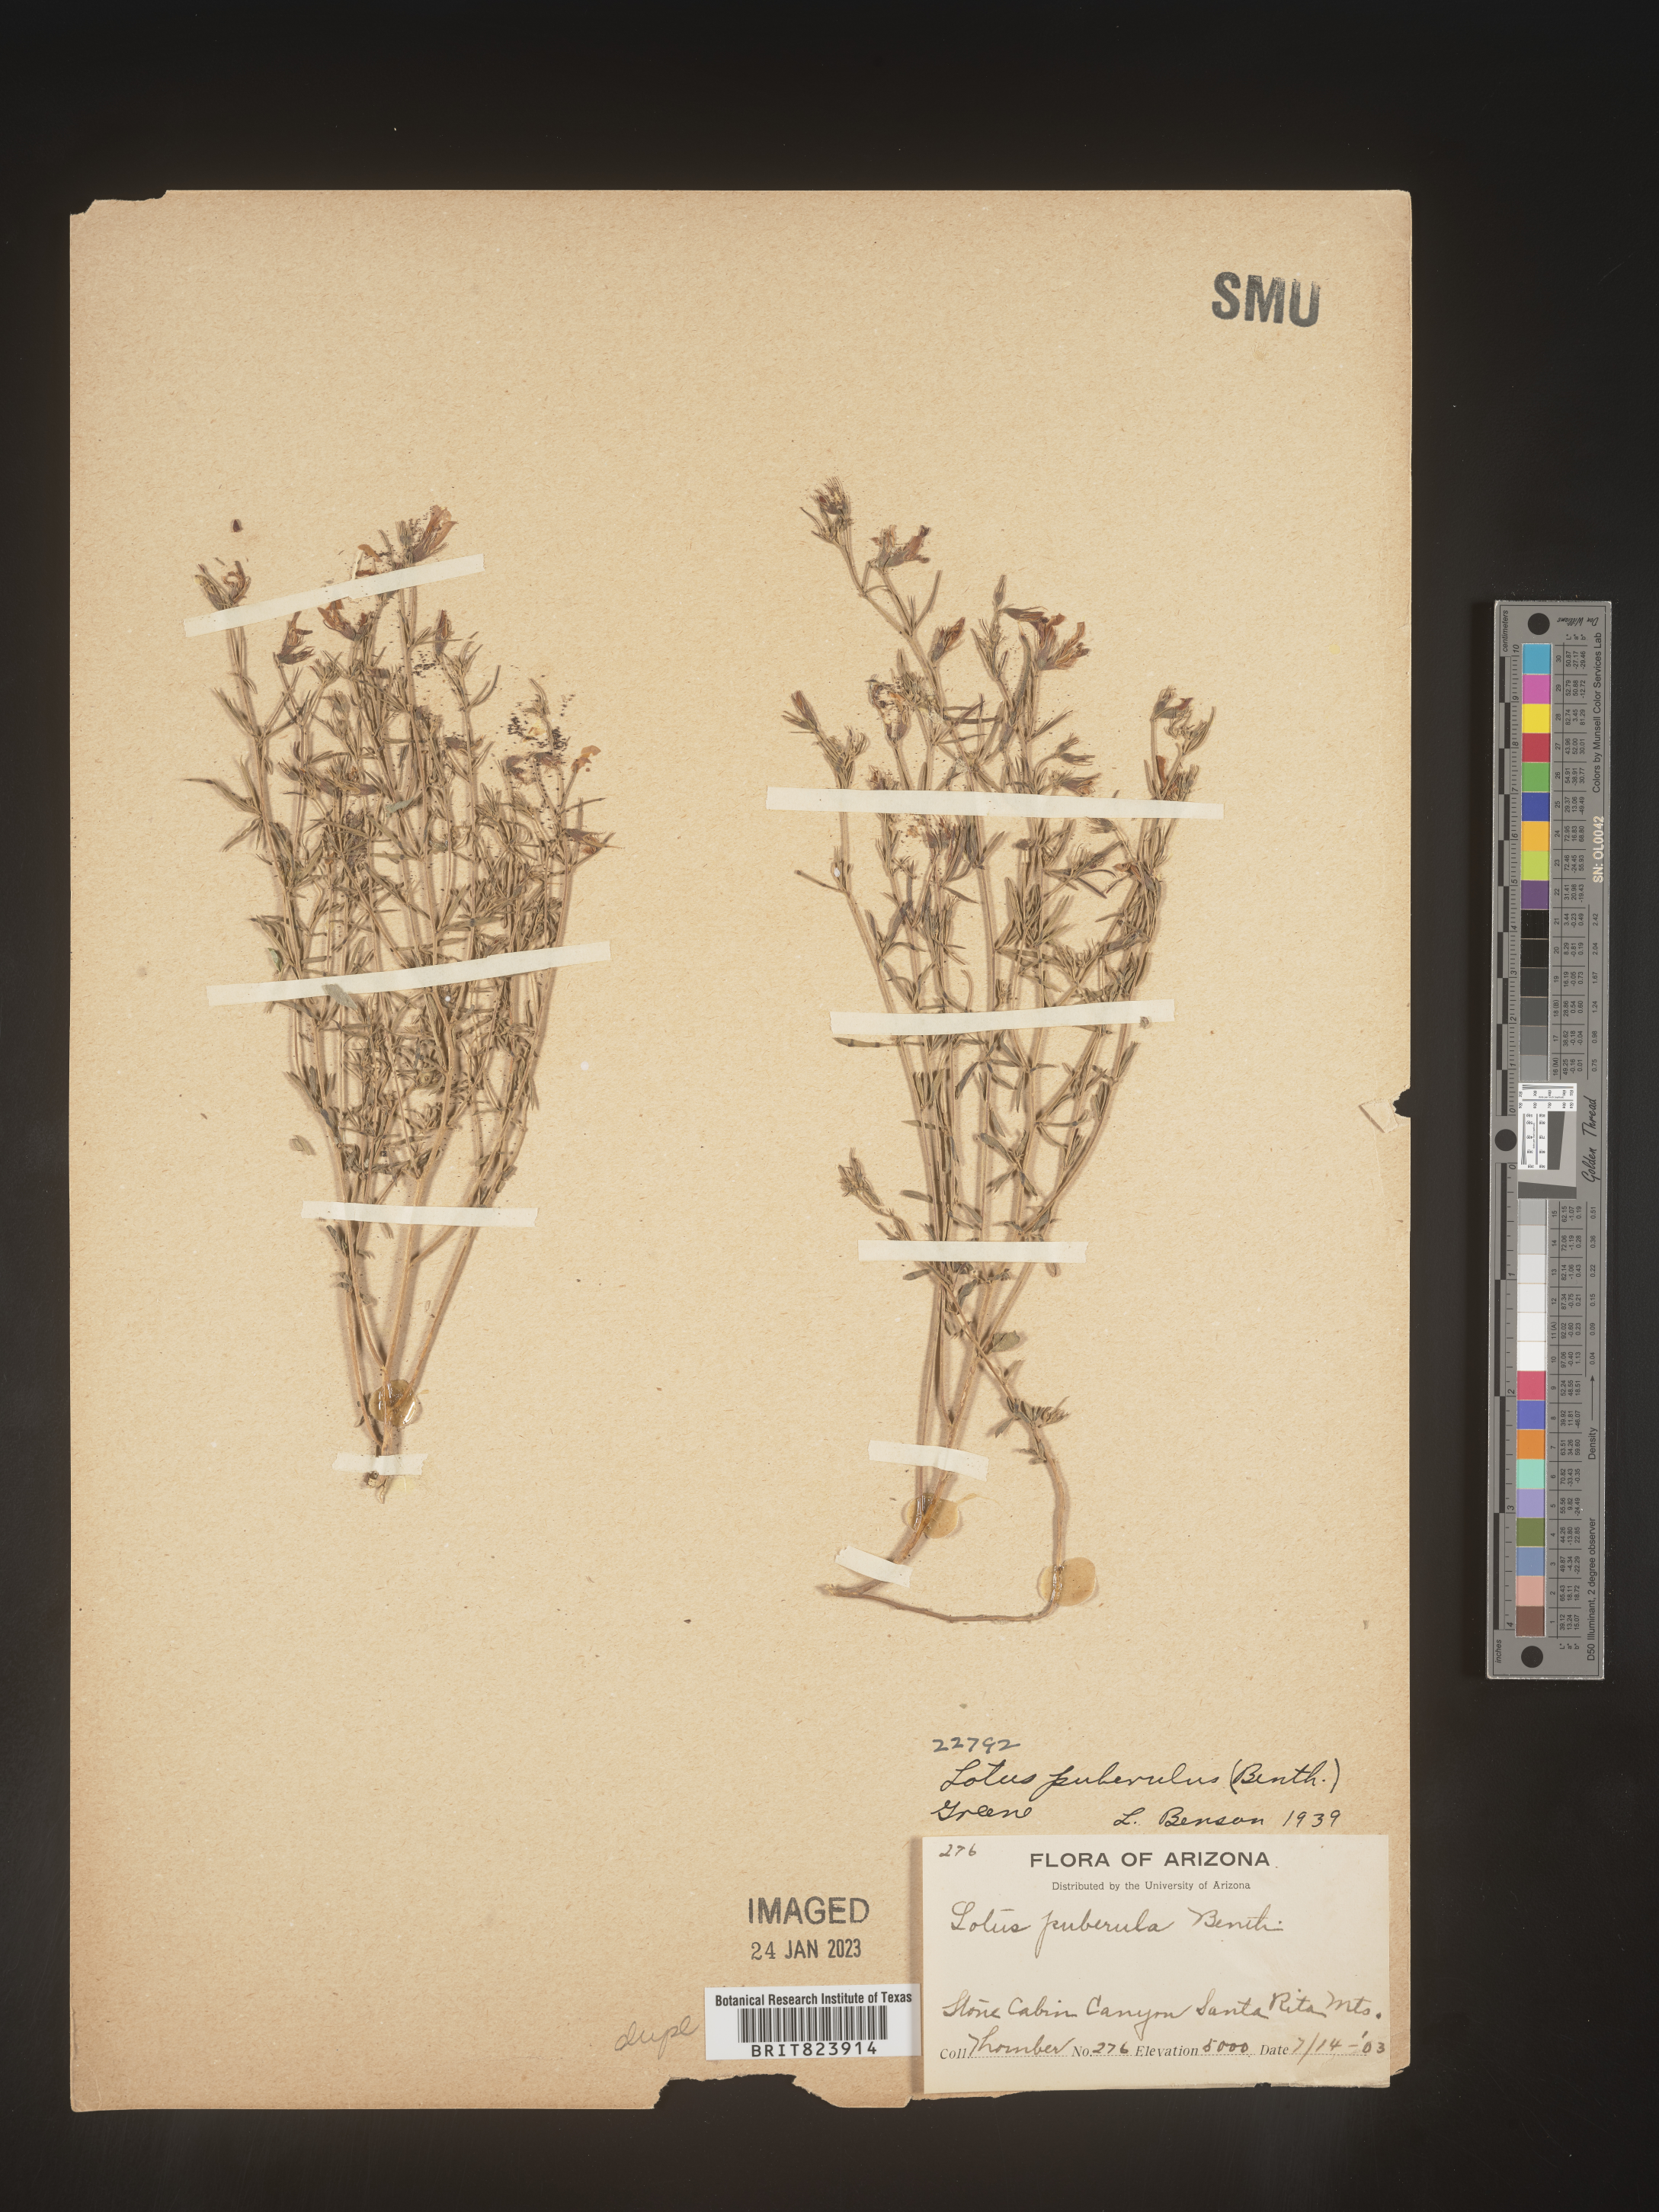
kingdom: Plantae
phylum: Tracheophyta
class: Magnoliopsida
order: Fabales
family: Fabaceae
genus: Lotus
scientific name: Lotus
